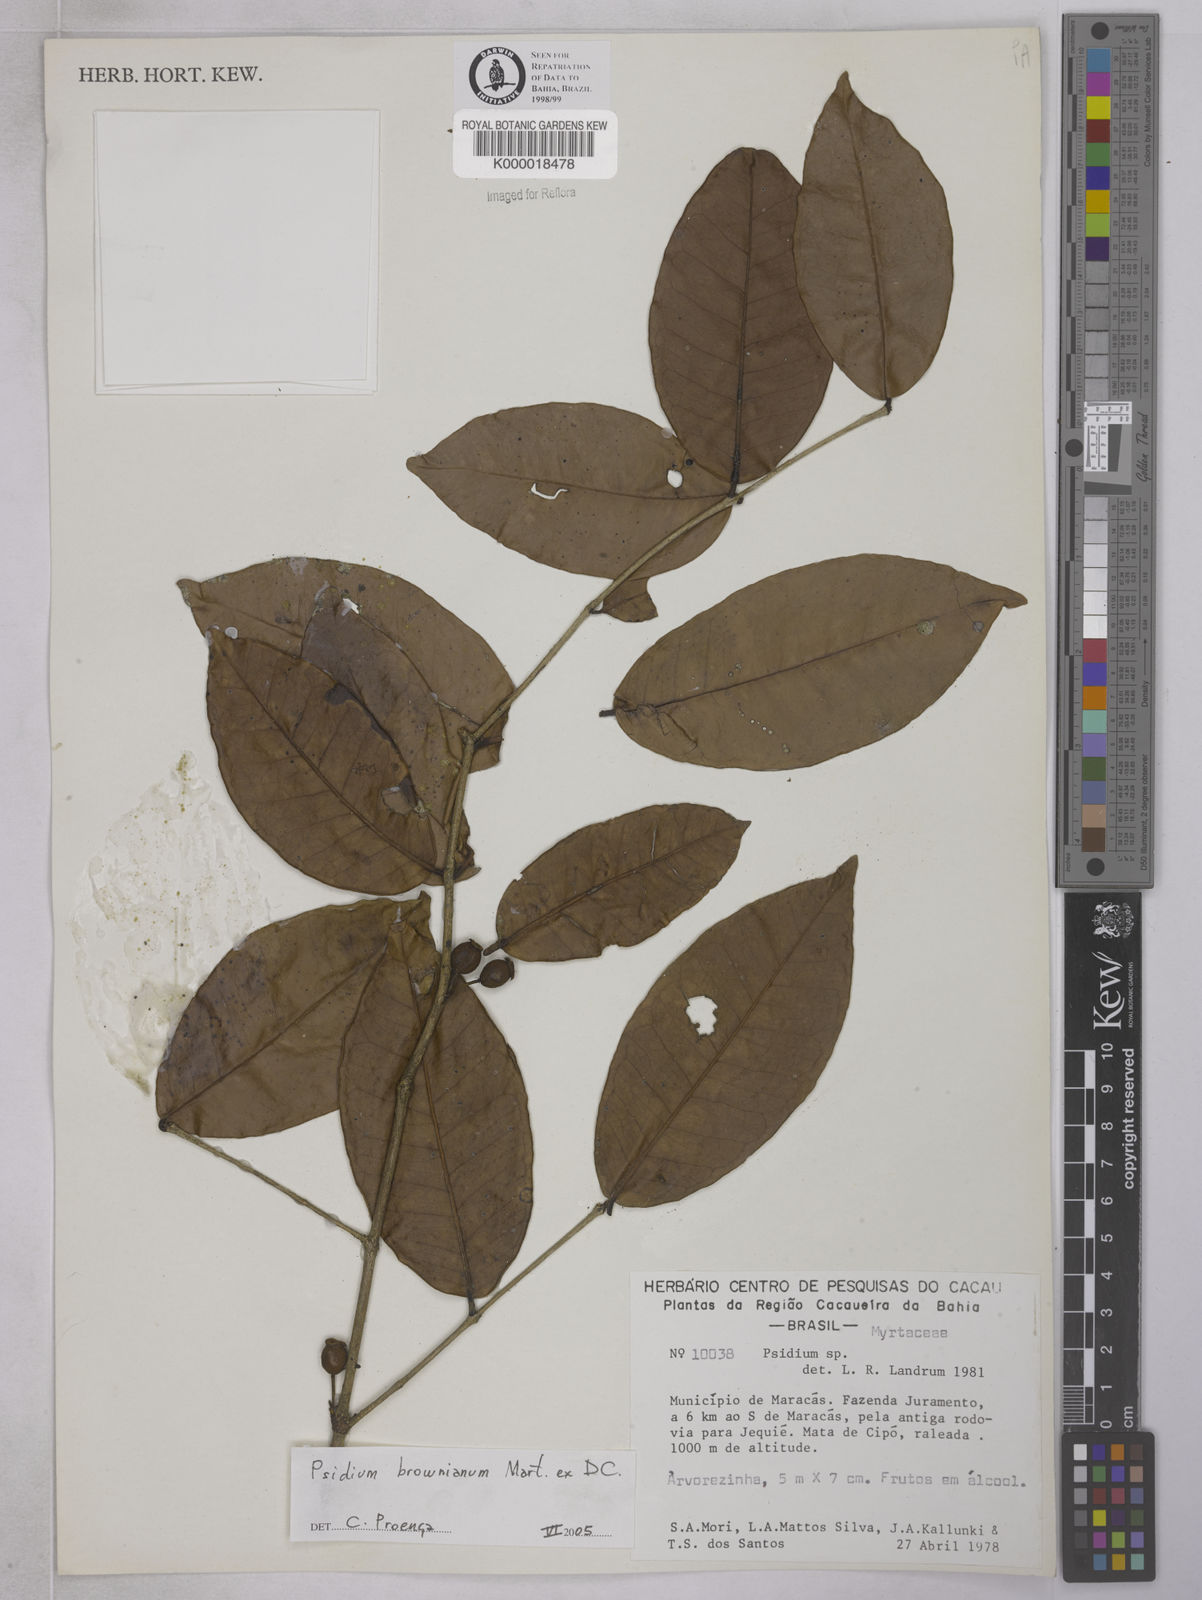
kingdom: Plantae
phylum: Tracheophyta
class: Magnoliopsida
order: Myrtales
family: Myrtaceae
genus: Psidium
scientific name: Psidium
